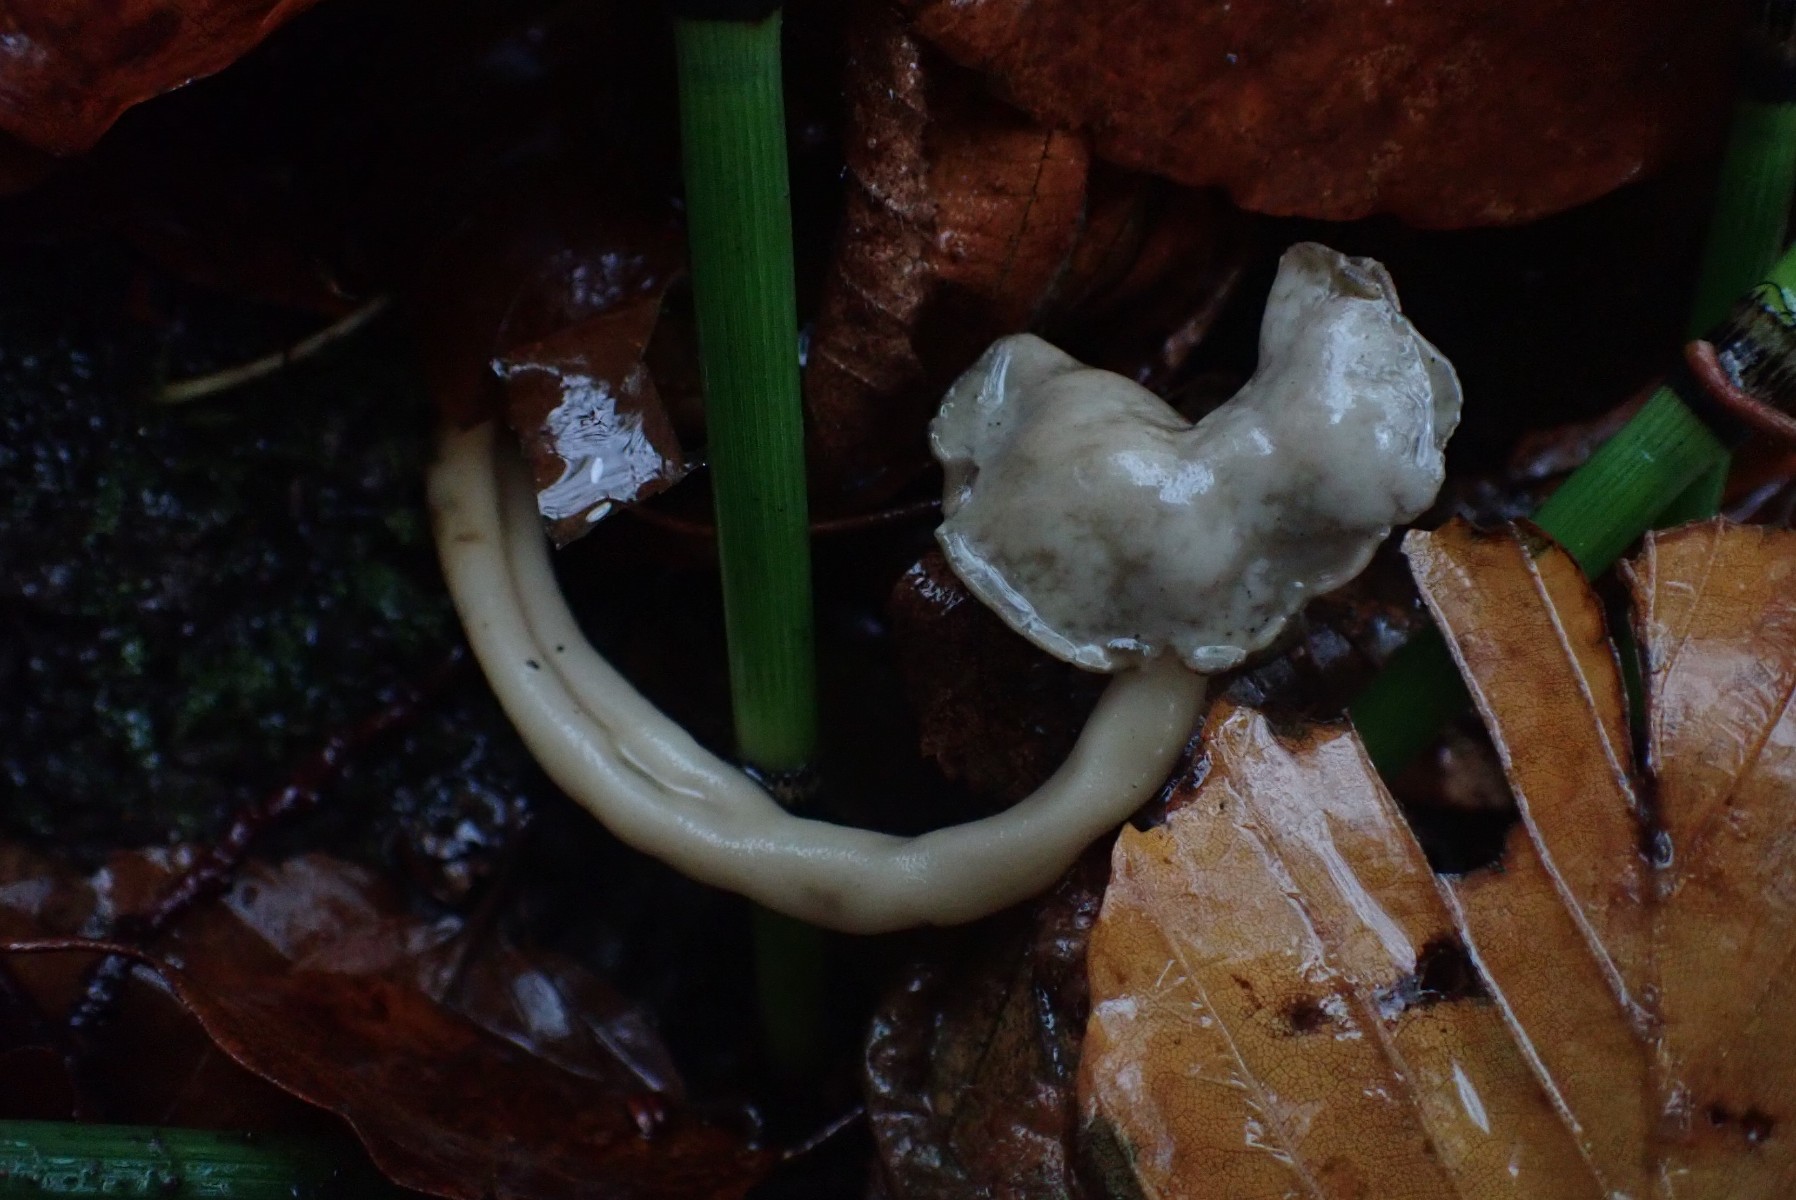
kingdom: Fungi
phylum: Ascomycota
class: Pezizomycetes
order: Pezizales
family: Helvellaceae
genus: Helvella
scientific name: Helvella elastica
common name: elastik-foldhat
